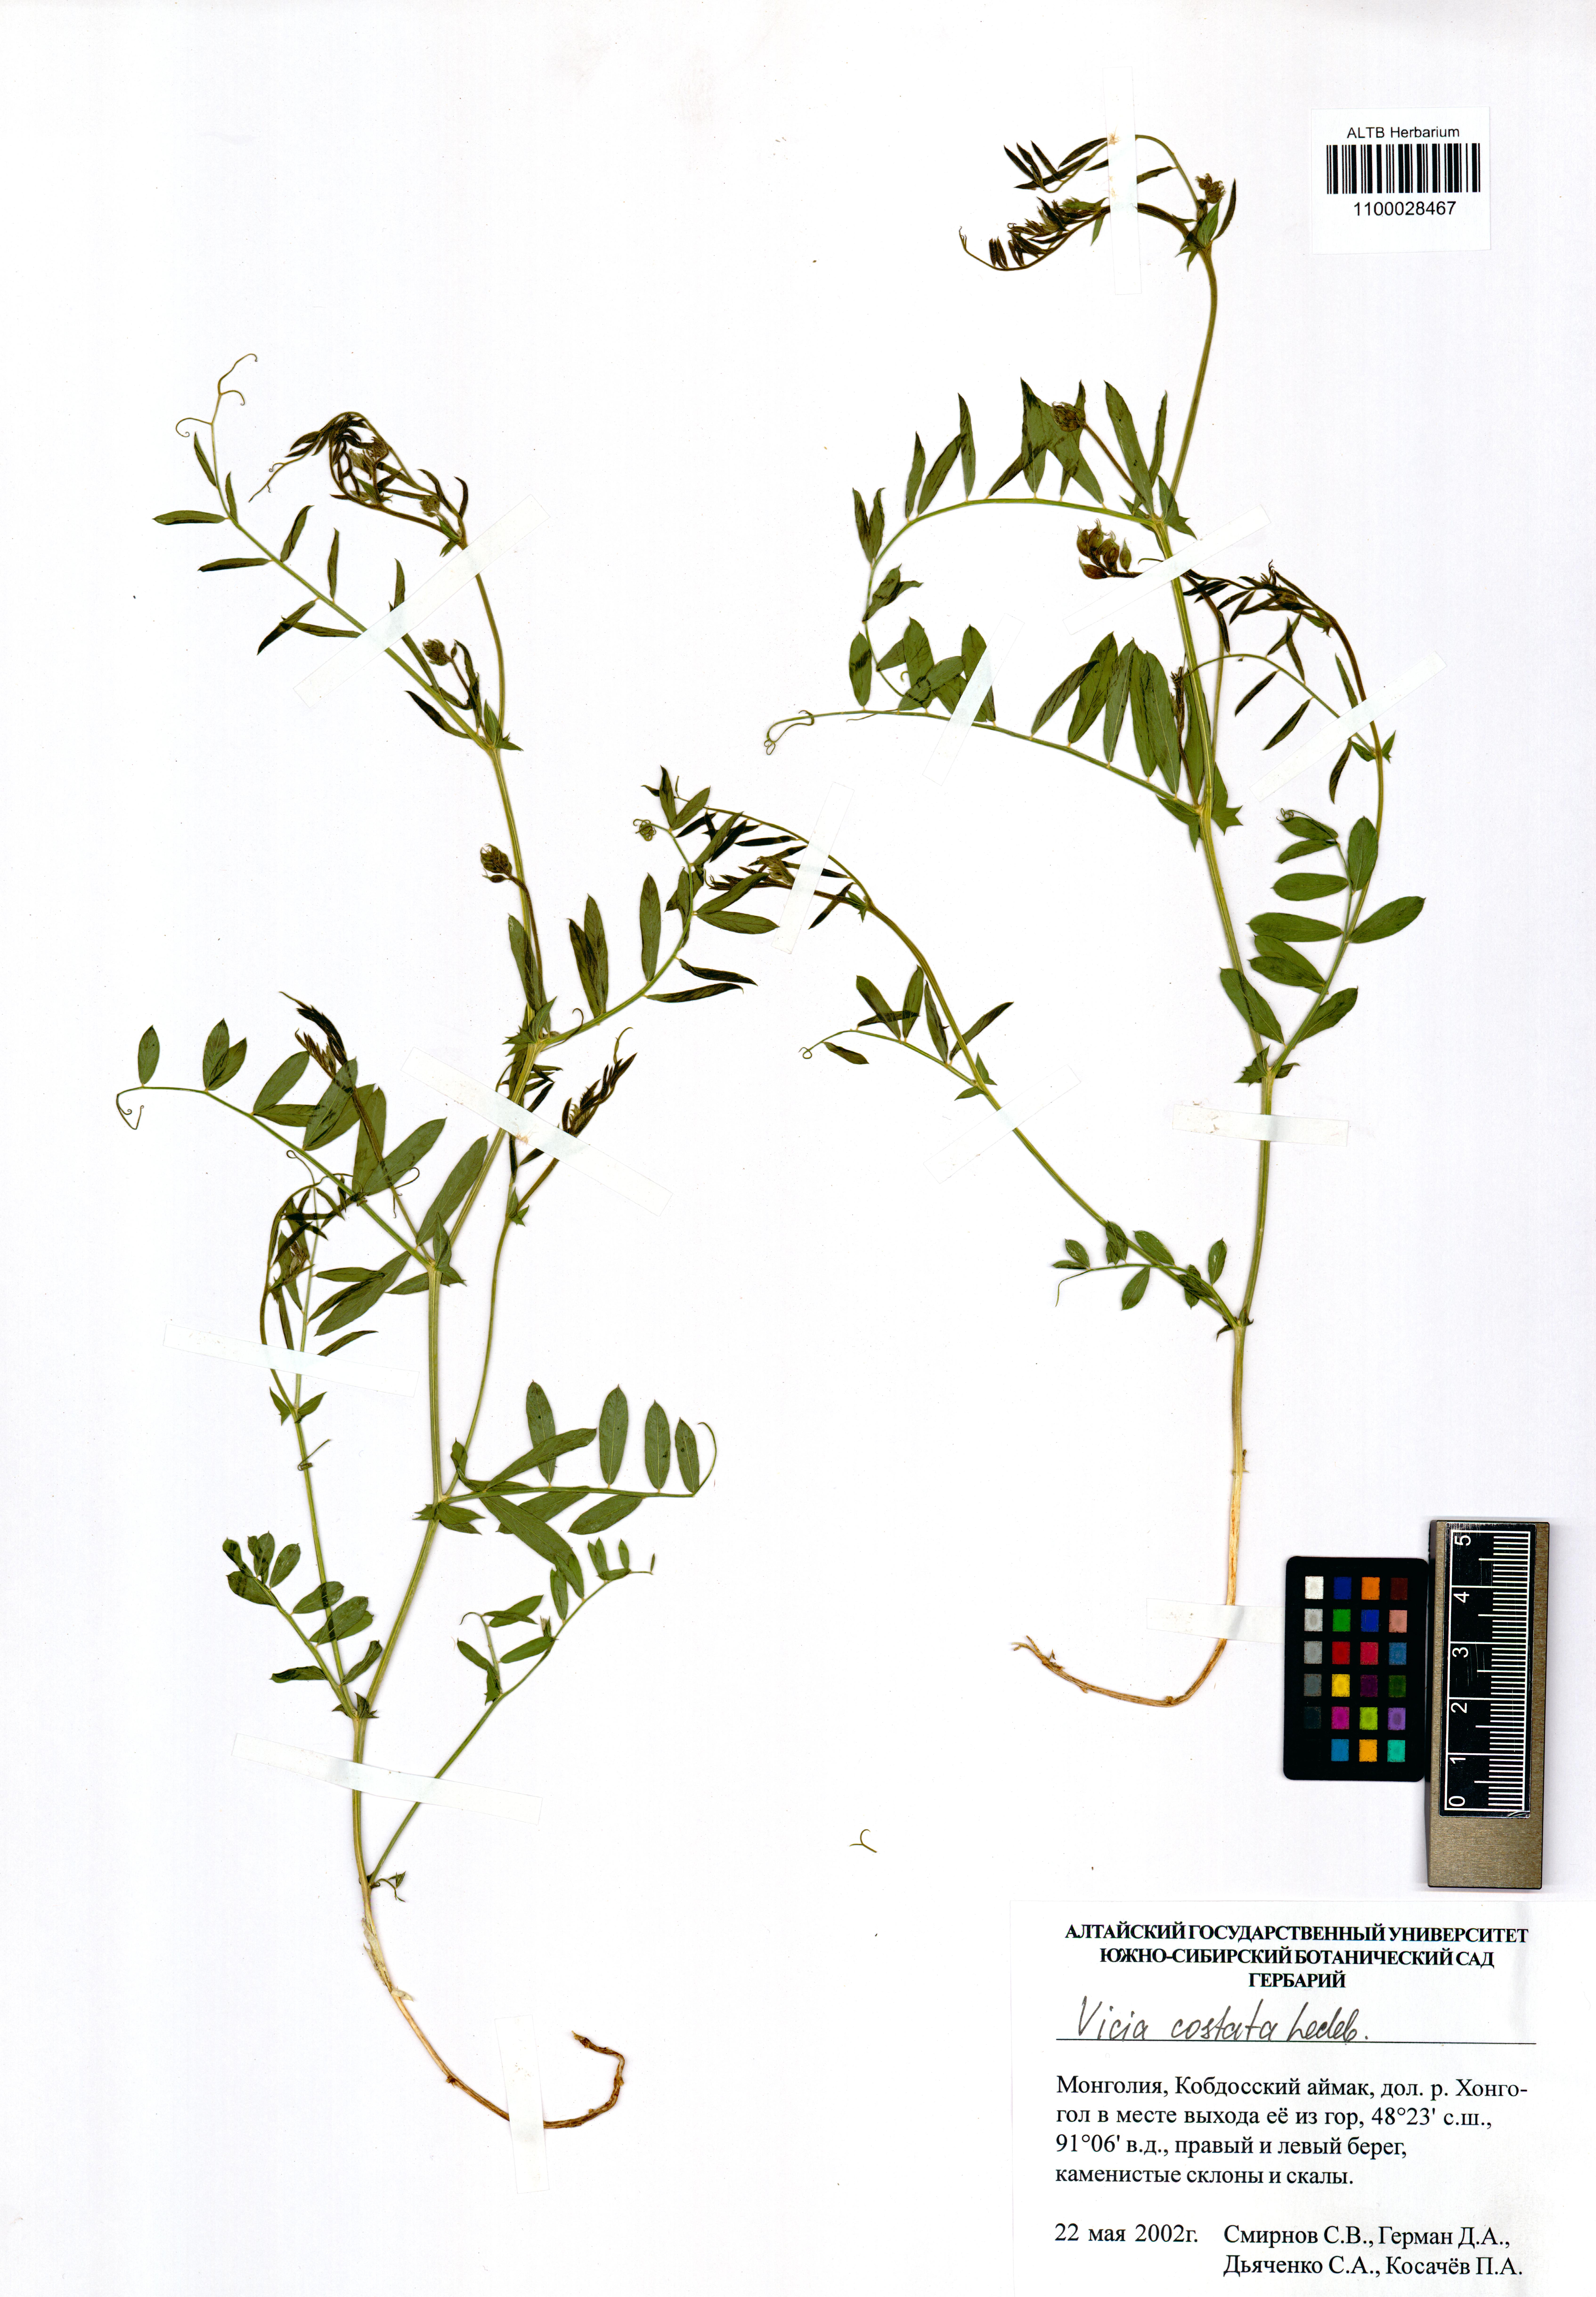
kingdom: Plantae
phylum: Tracheophyta
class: Magnoliopsida
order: Fabales
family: Fabaceae
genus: Vicia
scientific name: Vicia costata
